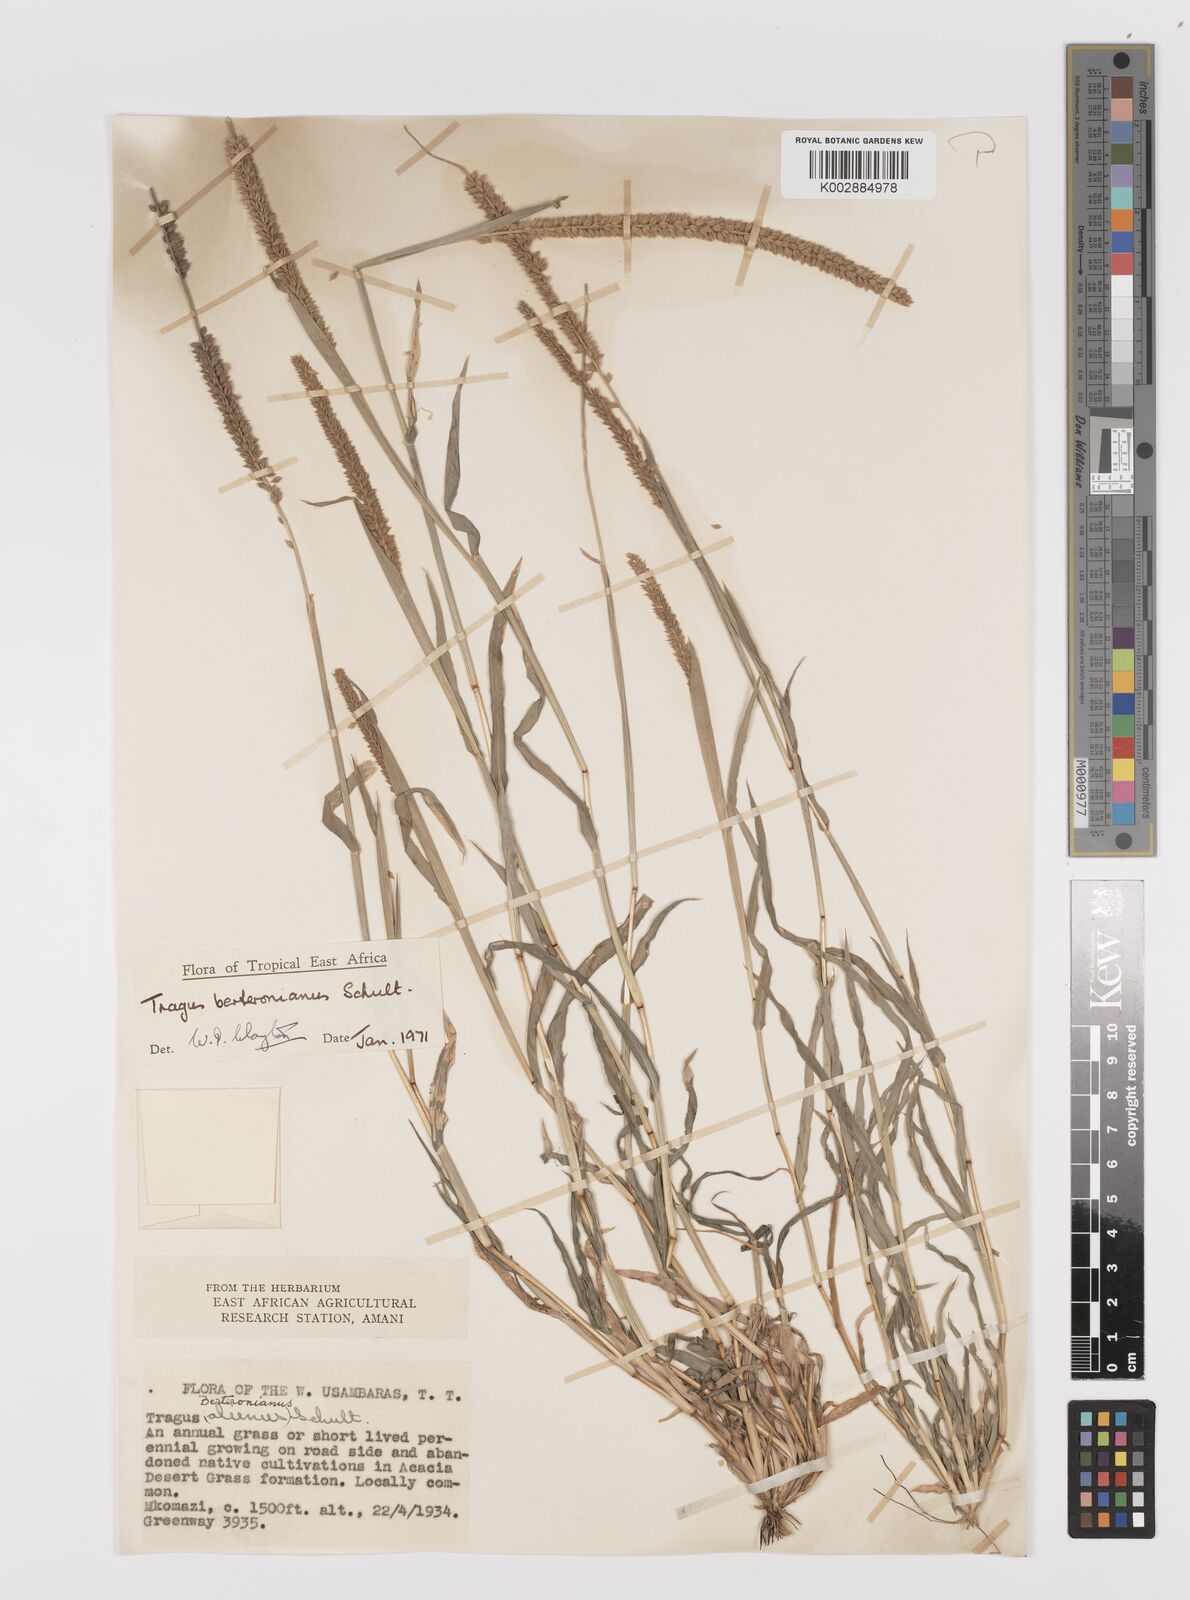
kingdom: Plantae
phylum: Tracheophyta
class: Liliopsida
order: Poales
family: Poaceae
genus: Tragus
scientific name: Tragus berteronianus
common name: African bur-grass
